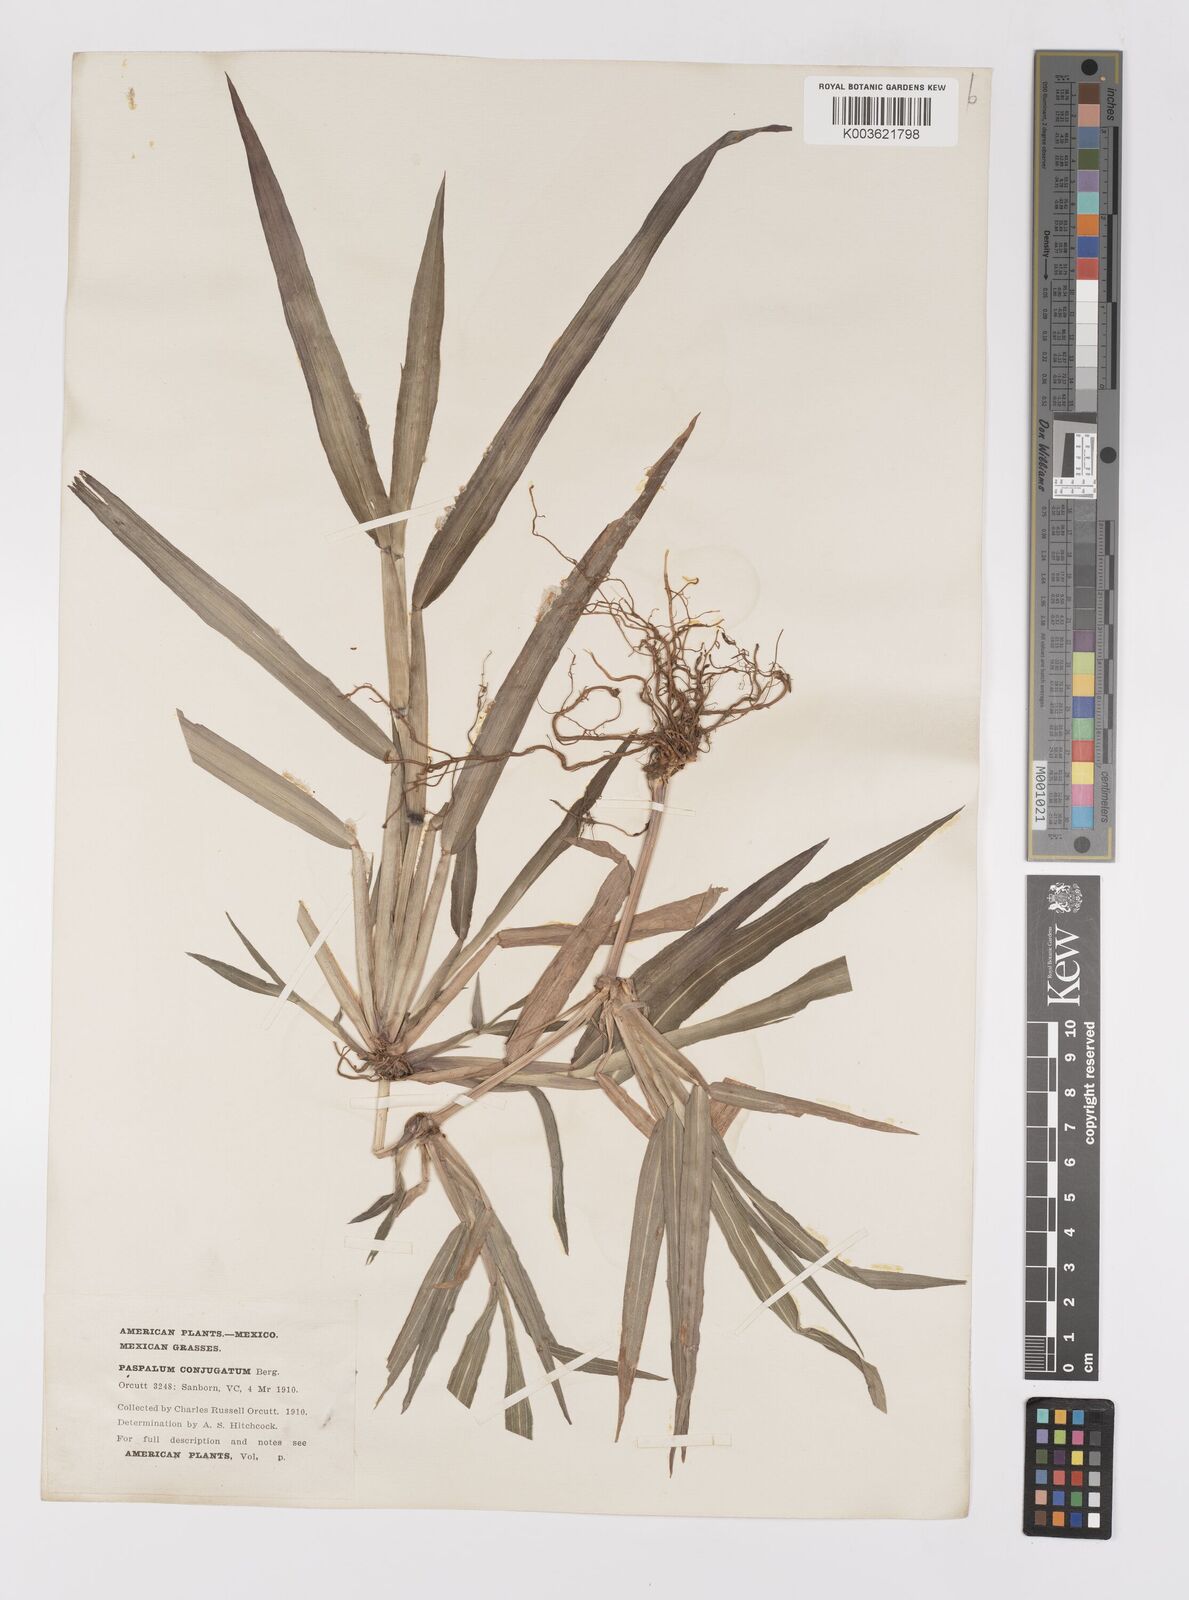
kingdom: Plantae
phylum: Tracheophyta
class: Liliopsida
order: Poales
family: Poaceae
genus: Paspalum
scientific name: Paspalum conjugatum
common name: Hilograss
